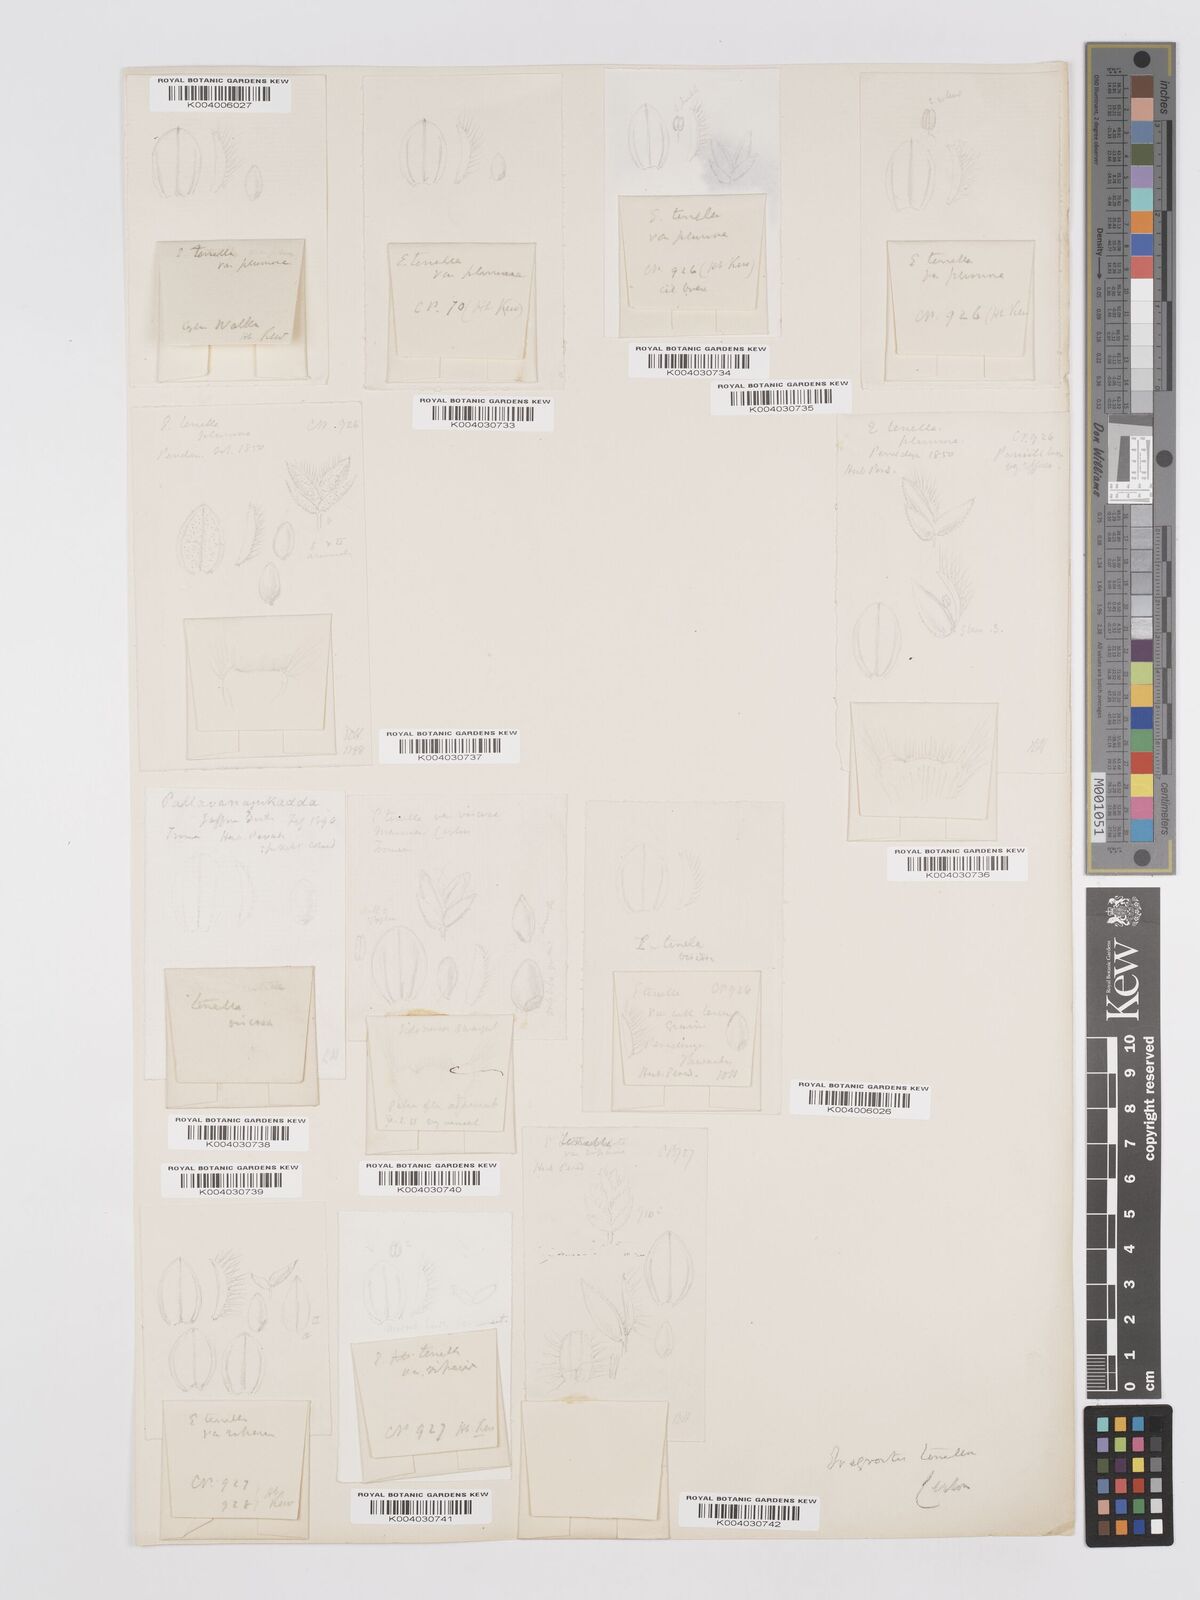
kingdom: Plantae
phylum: Tracheophyta
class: Liliopsida
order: Poales
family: Poaceae
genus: Eragrostis
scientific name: Eragrostis tenella
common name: Japanese lovegrass
